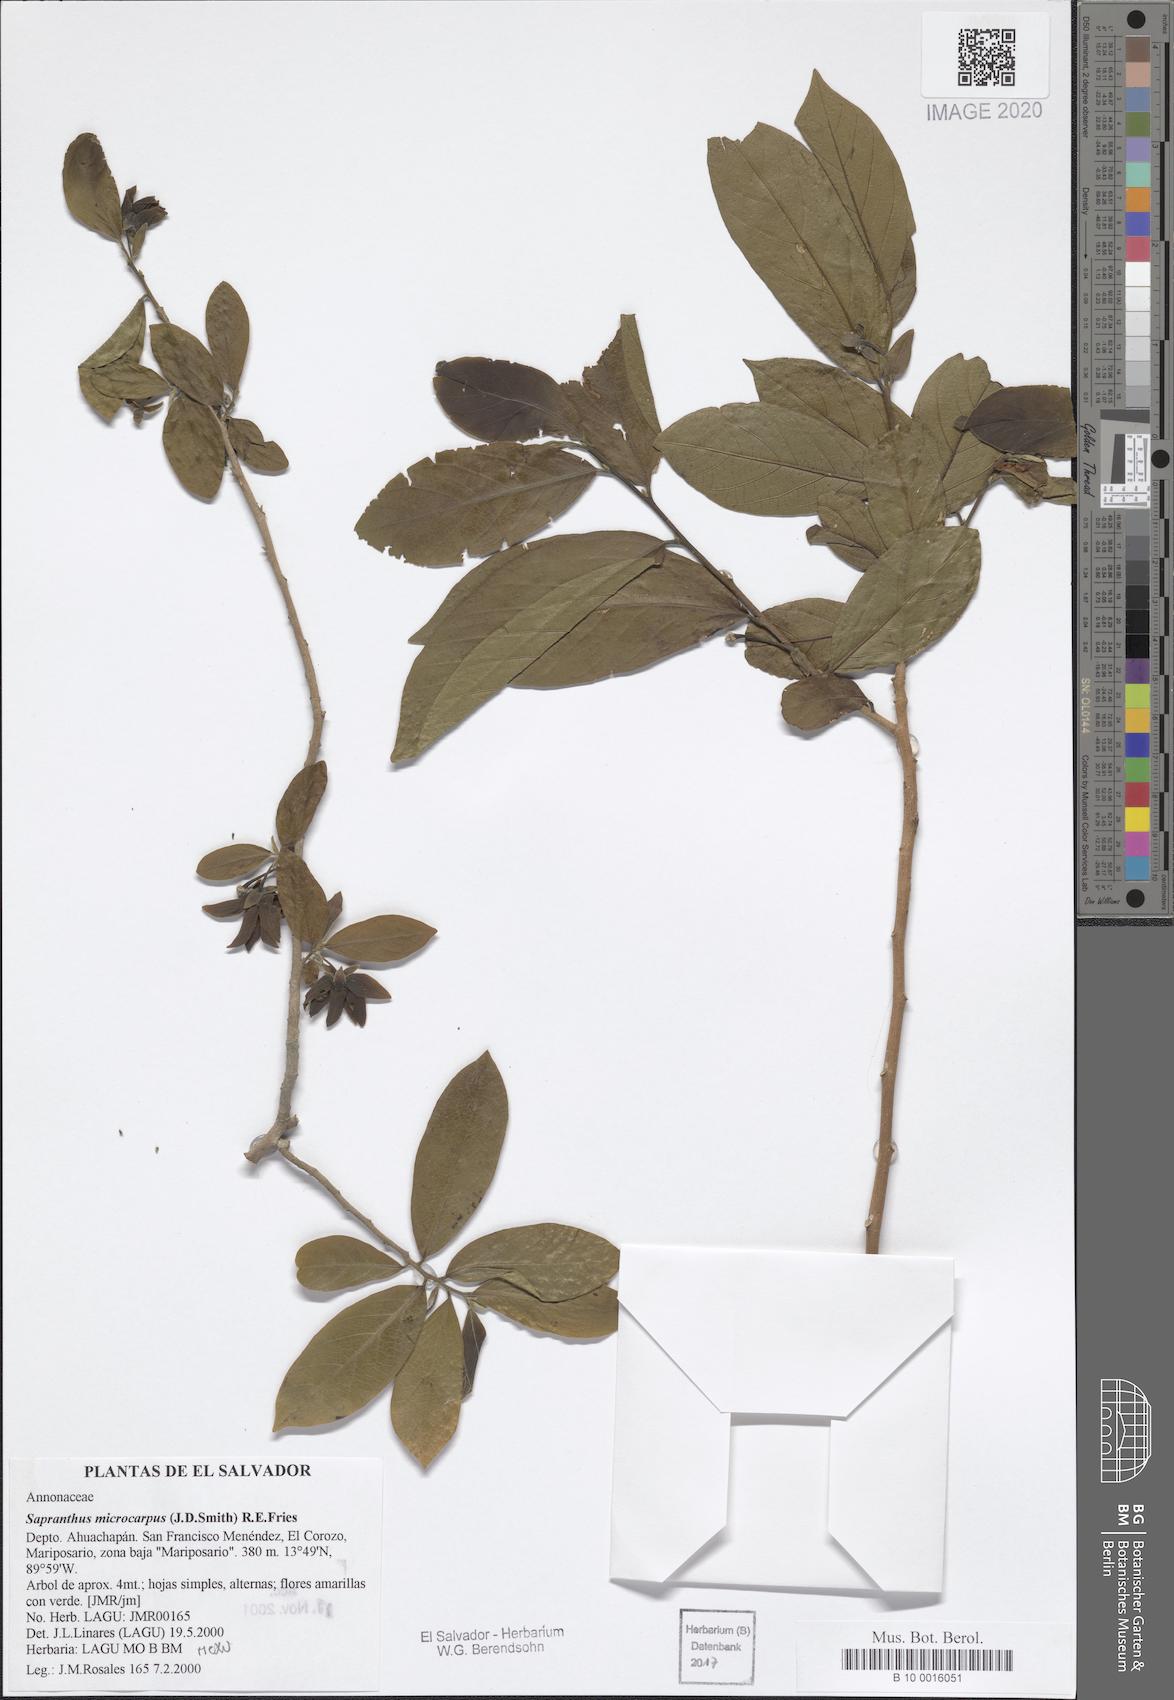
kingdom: Plantae
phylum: Tracheophyta
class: Magnoliopsida
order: Magnoliales
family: Annonaceae
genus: Sapranthus
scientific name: Sapranthus microcarpus
